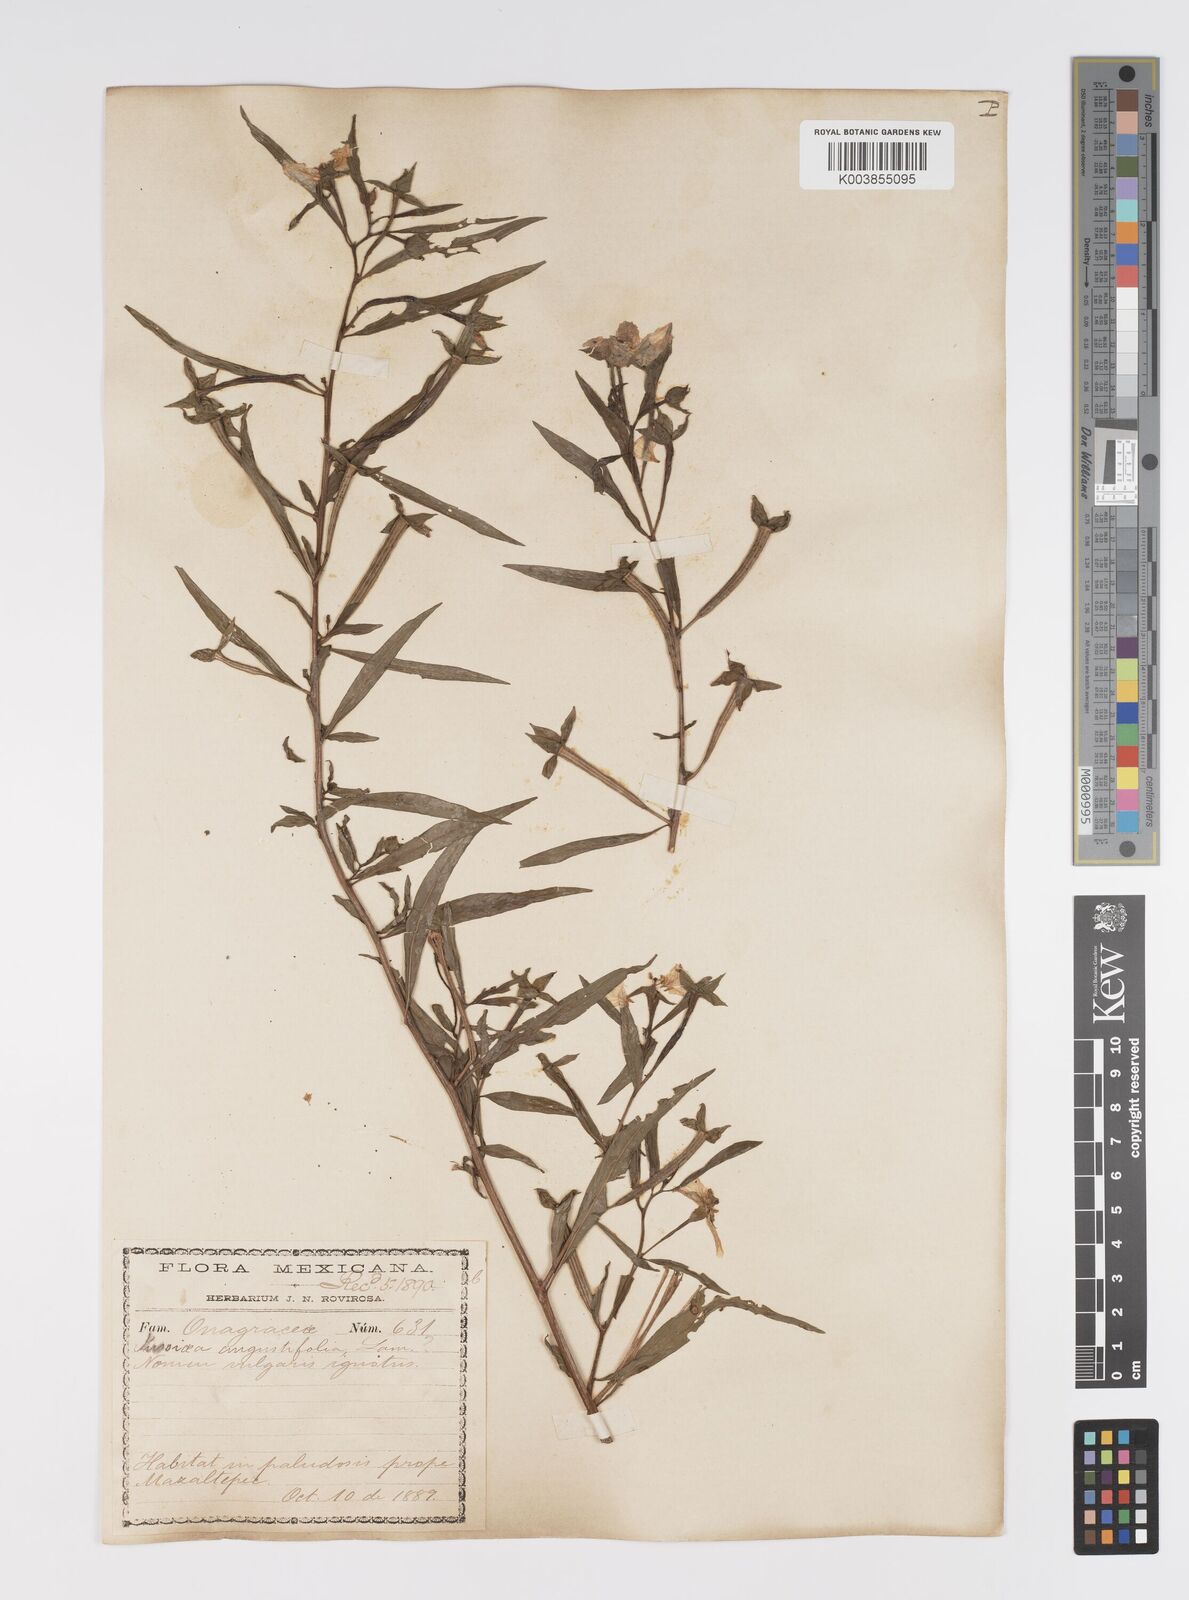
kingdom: Plantae
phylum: Tracheophyta
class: Magnoliopsida
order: Myrtales
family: Onagraceae
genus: Ludwigia
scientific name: Ludwigia octovalvis
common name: Water-primrose
